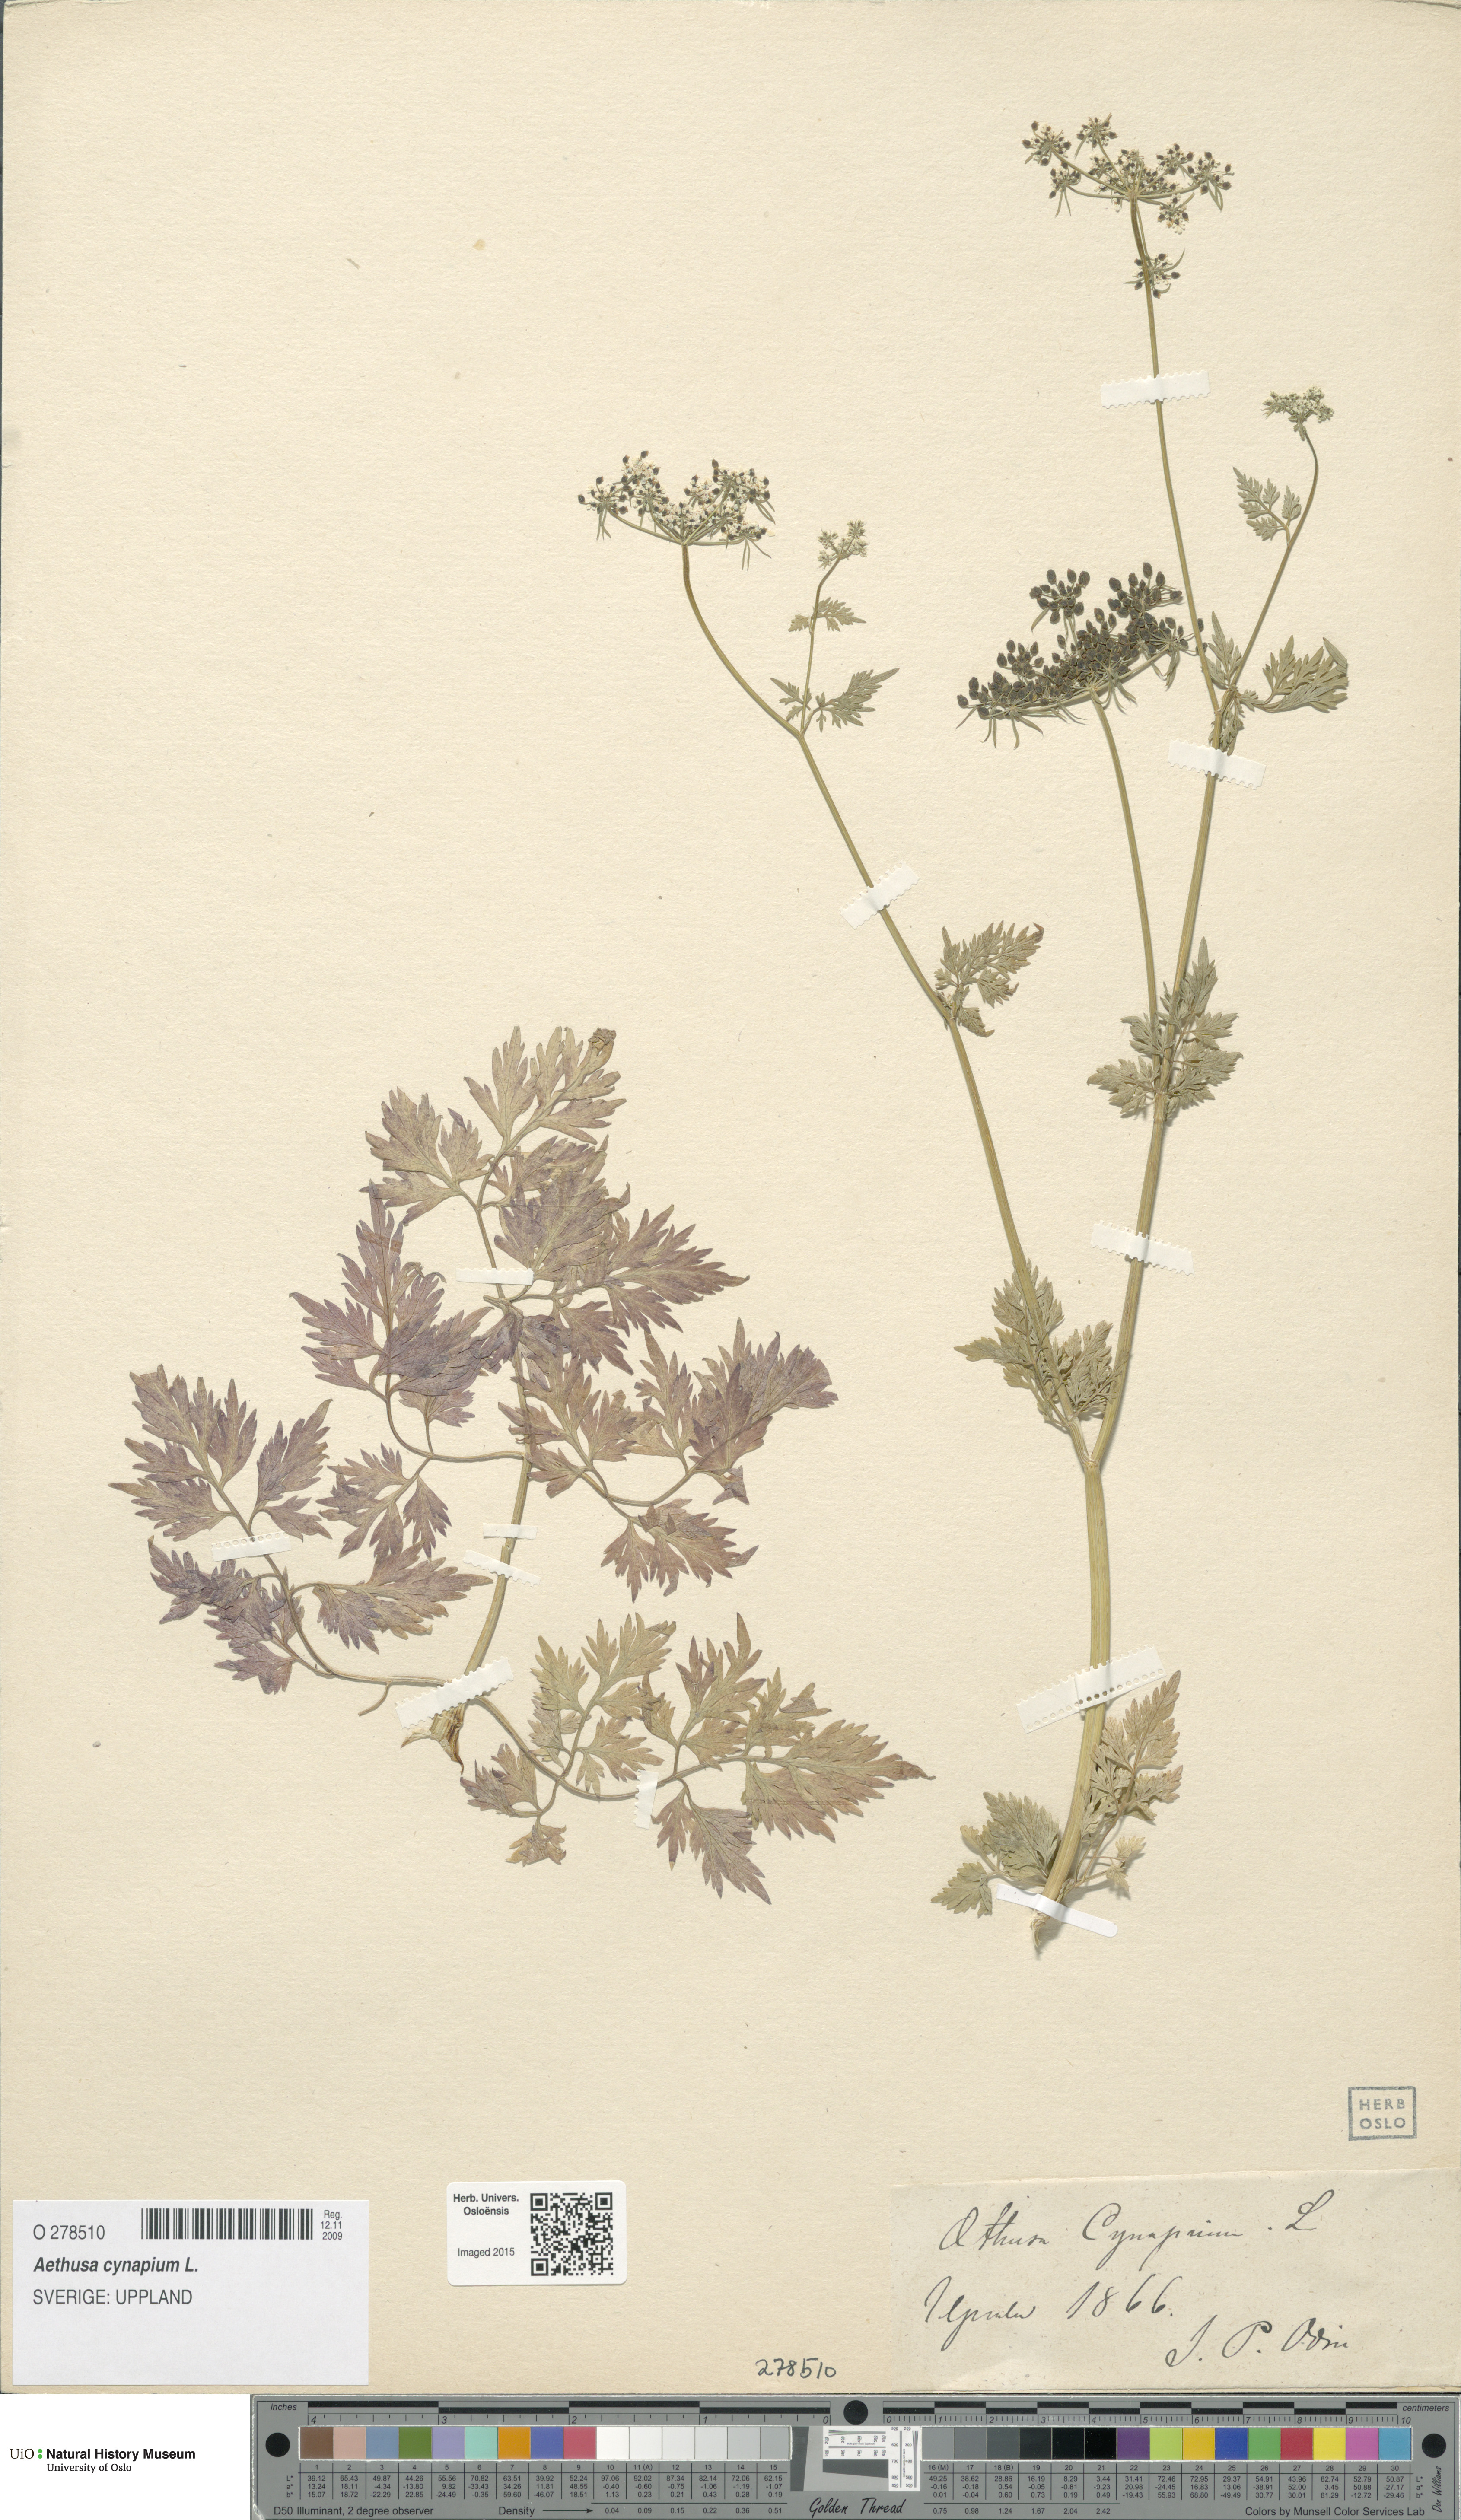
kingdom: Plantae
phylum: Tracheophyta
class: Magnoliopsida
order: Apiales
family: Apiaceae
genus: Aethusa
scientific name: Aethusa cynapium
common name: Fool's parsley
